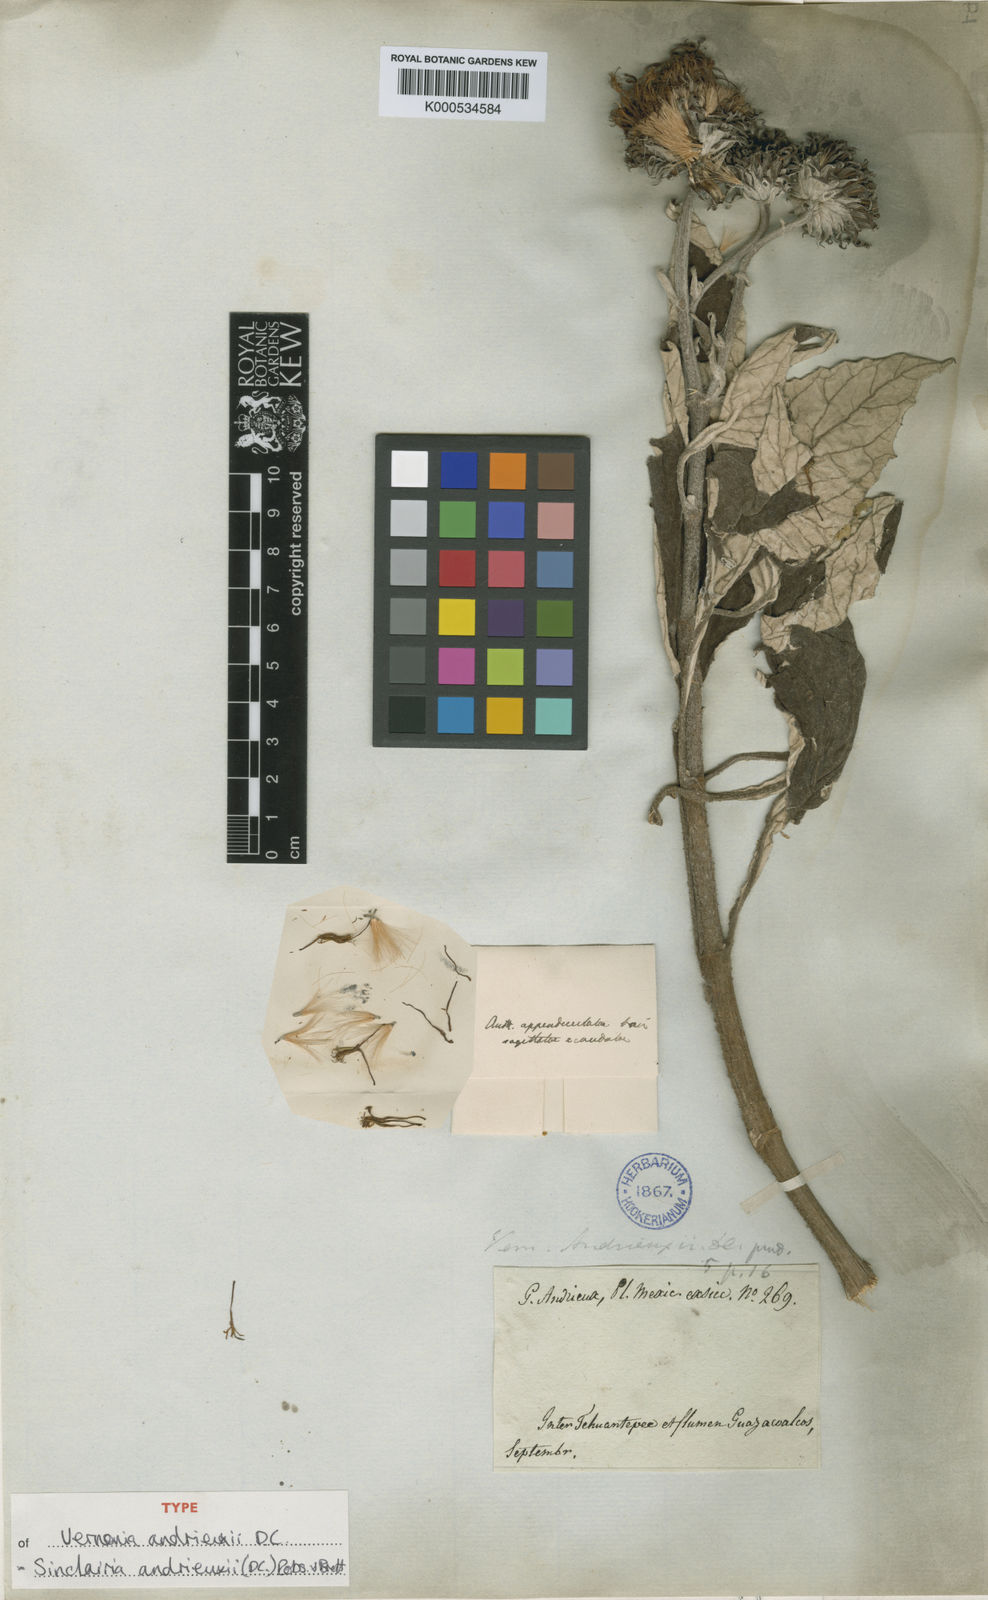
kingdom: Plantae
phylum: Tracheophyta
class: Magnoliopsida
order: Asterales
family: Asteraceae
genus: Sinclairia
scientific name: Sinclairia andrieuxii
